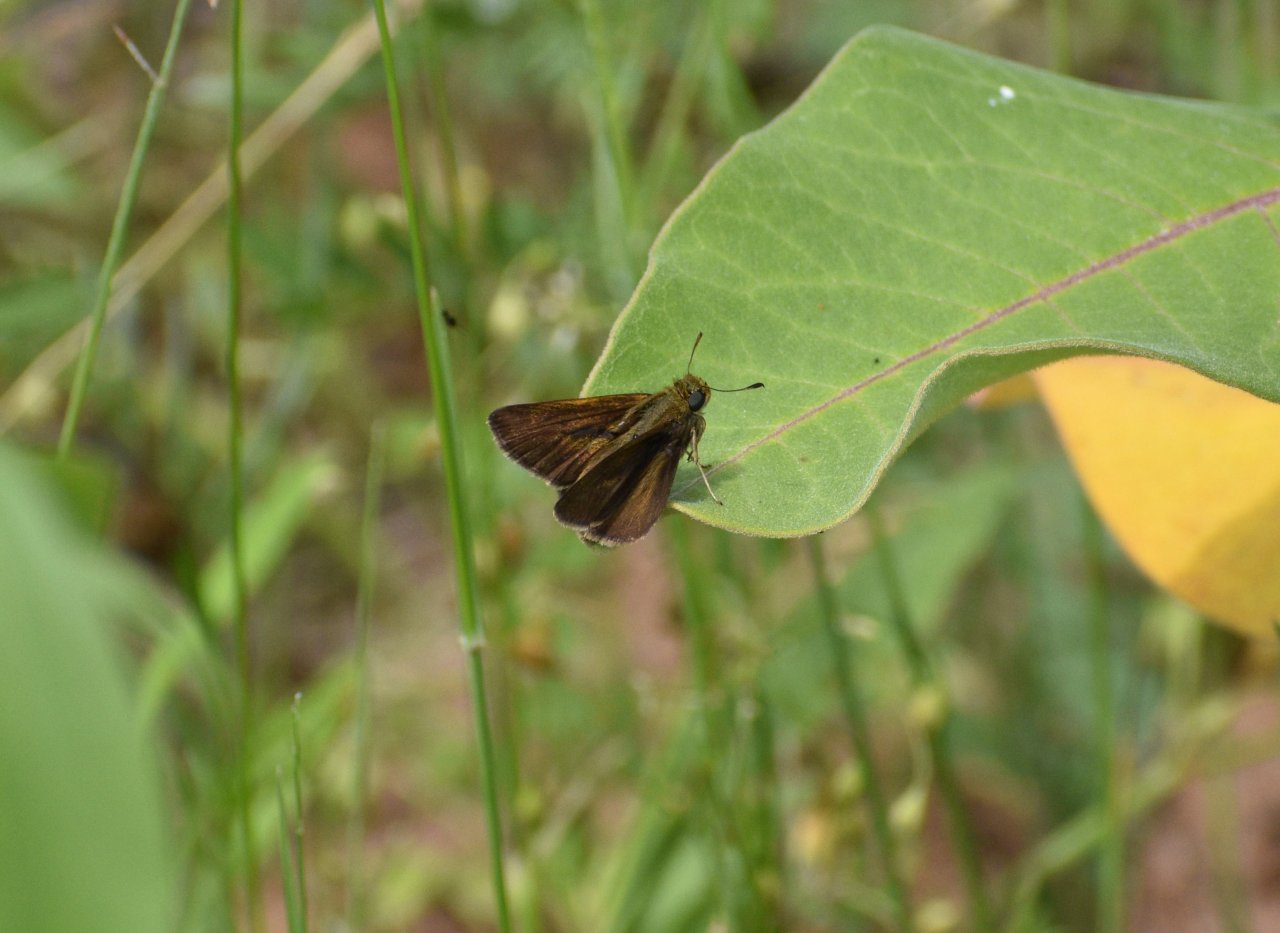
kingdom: Animalia
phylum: Arthropoda
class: Insecta
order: Lepidoptera
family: Hesperiidae
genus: Euphyes
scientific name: Euphyes vestris
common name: Dun Skipper
